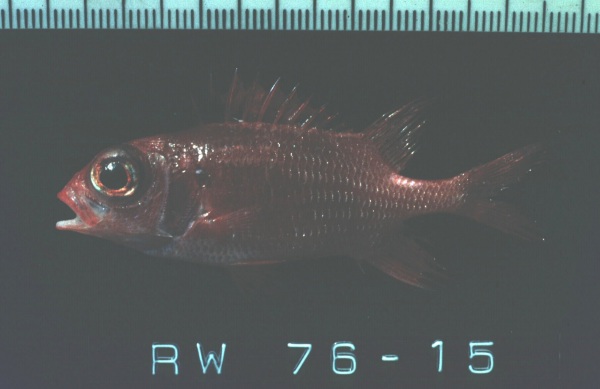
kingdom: Animalia
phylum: Chordata
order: Beryciformes
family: Holocentridae
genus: Sargocentron
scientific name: Sargocentron caudimaculatum
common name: Fanfin soldier
